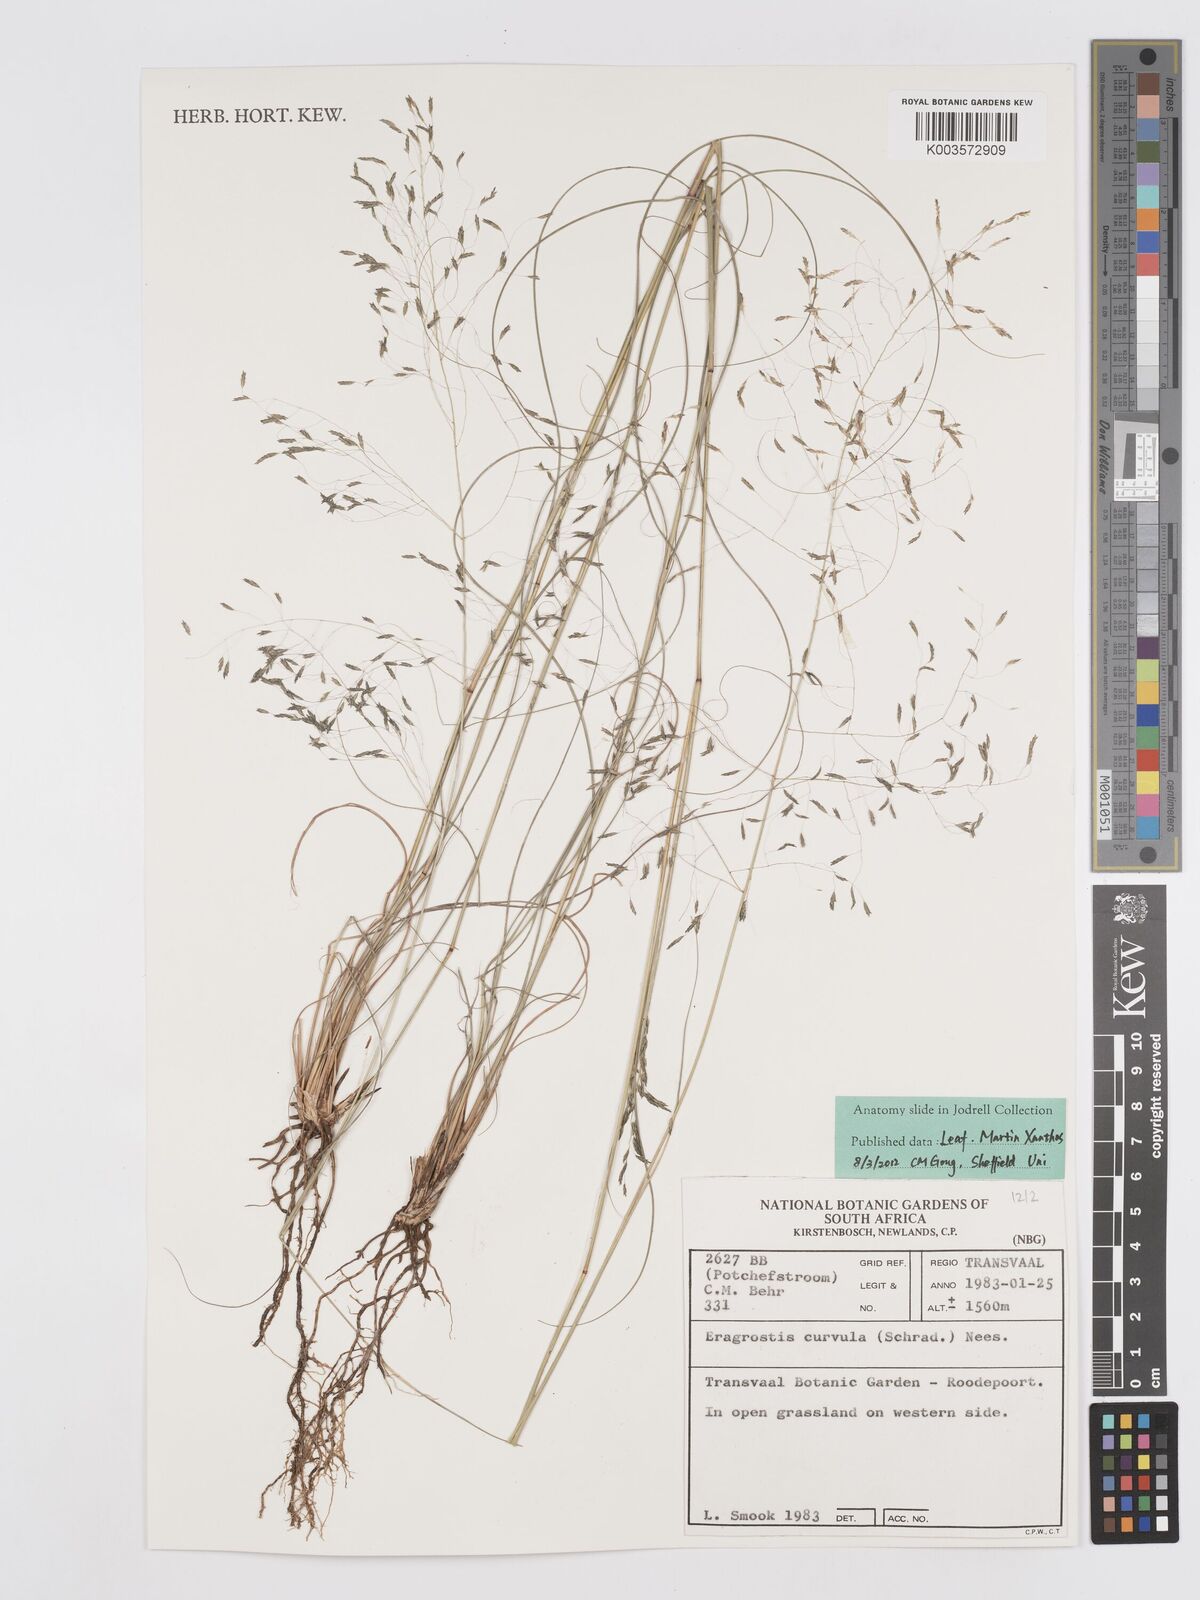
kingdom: Plantae
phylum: Tracheophyta
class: Liliopsida
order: Poales
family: Poaceae
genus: Eragrostis
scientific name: Eragrostis curvula
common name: African love-grass
